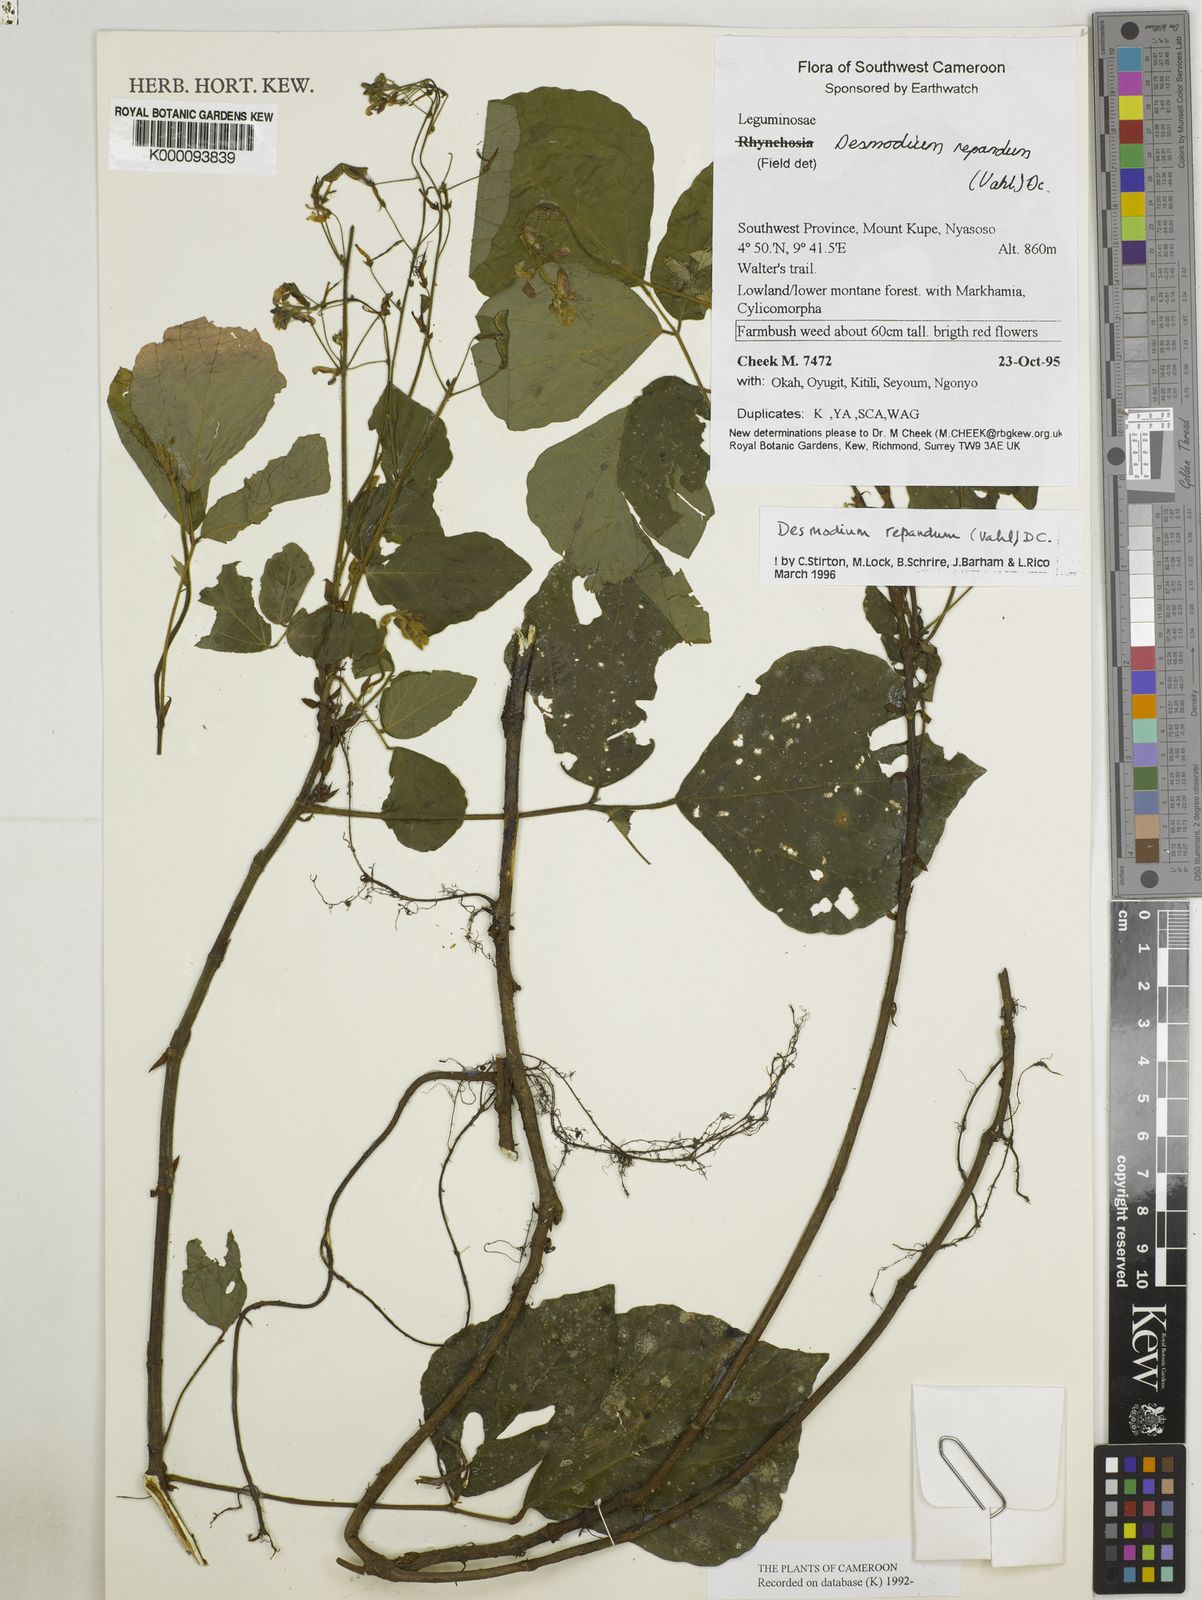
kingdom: Plantae
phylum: Tracheophyta
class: Magnoliopsida
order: Fabales
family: Fabaceae
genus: Desmodium
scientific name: Desmodium
